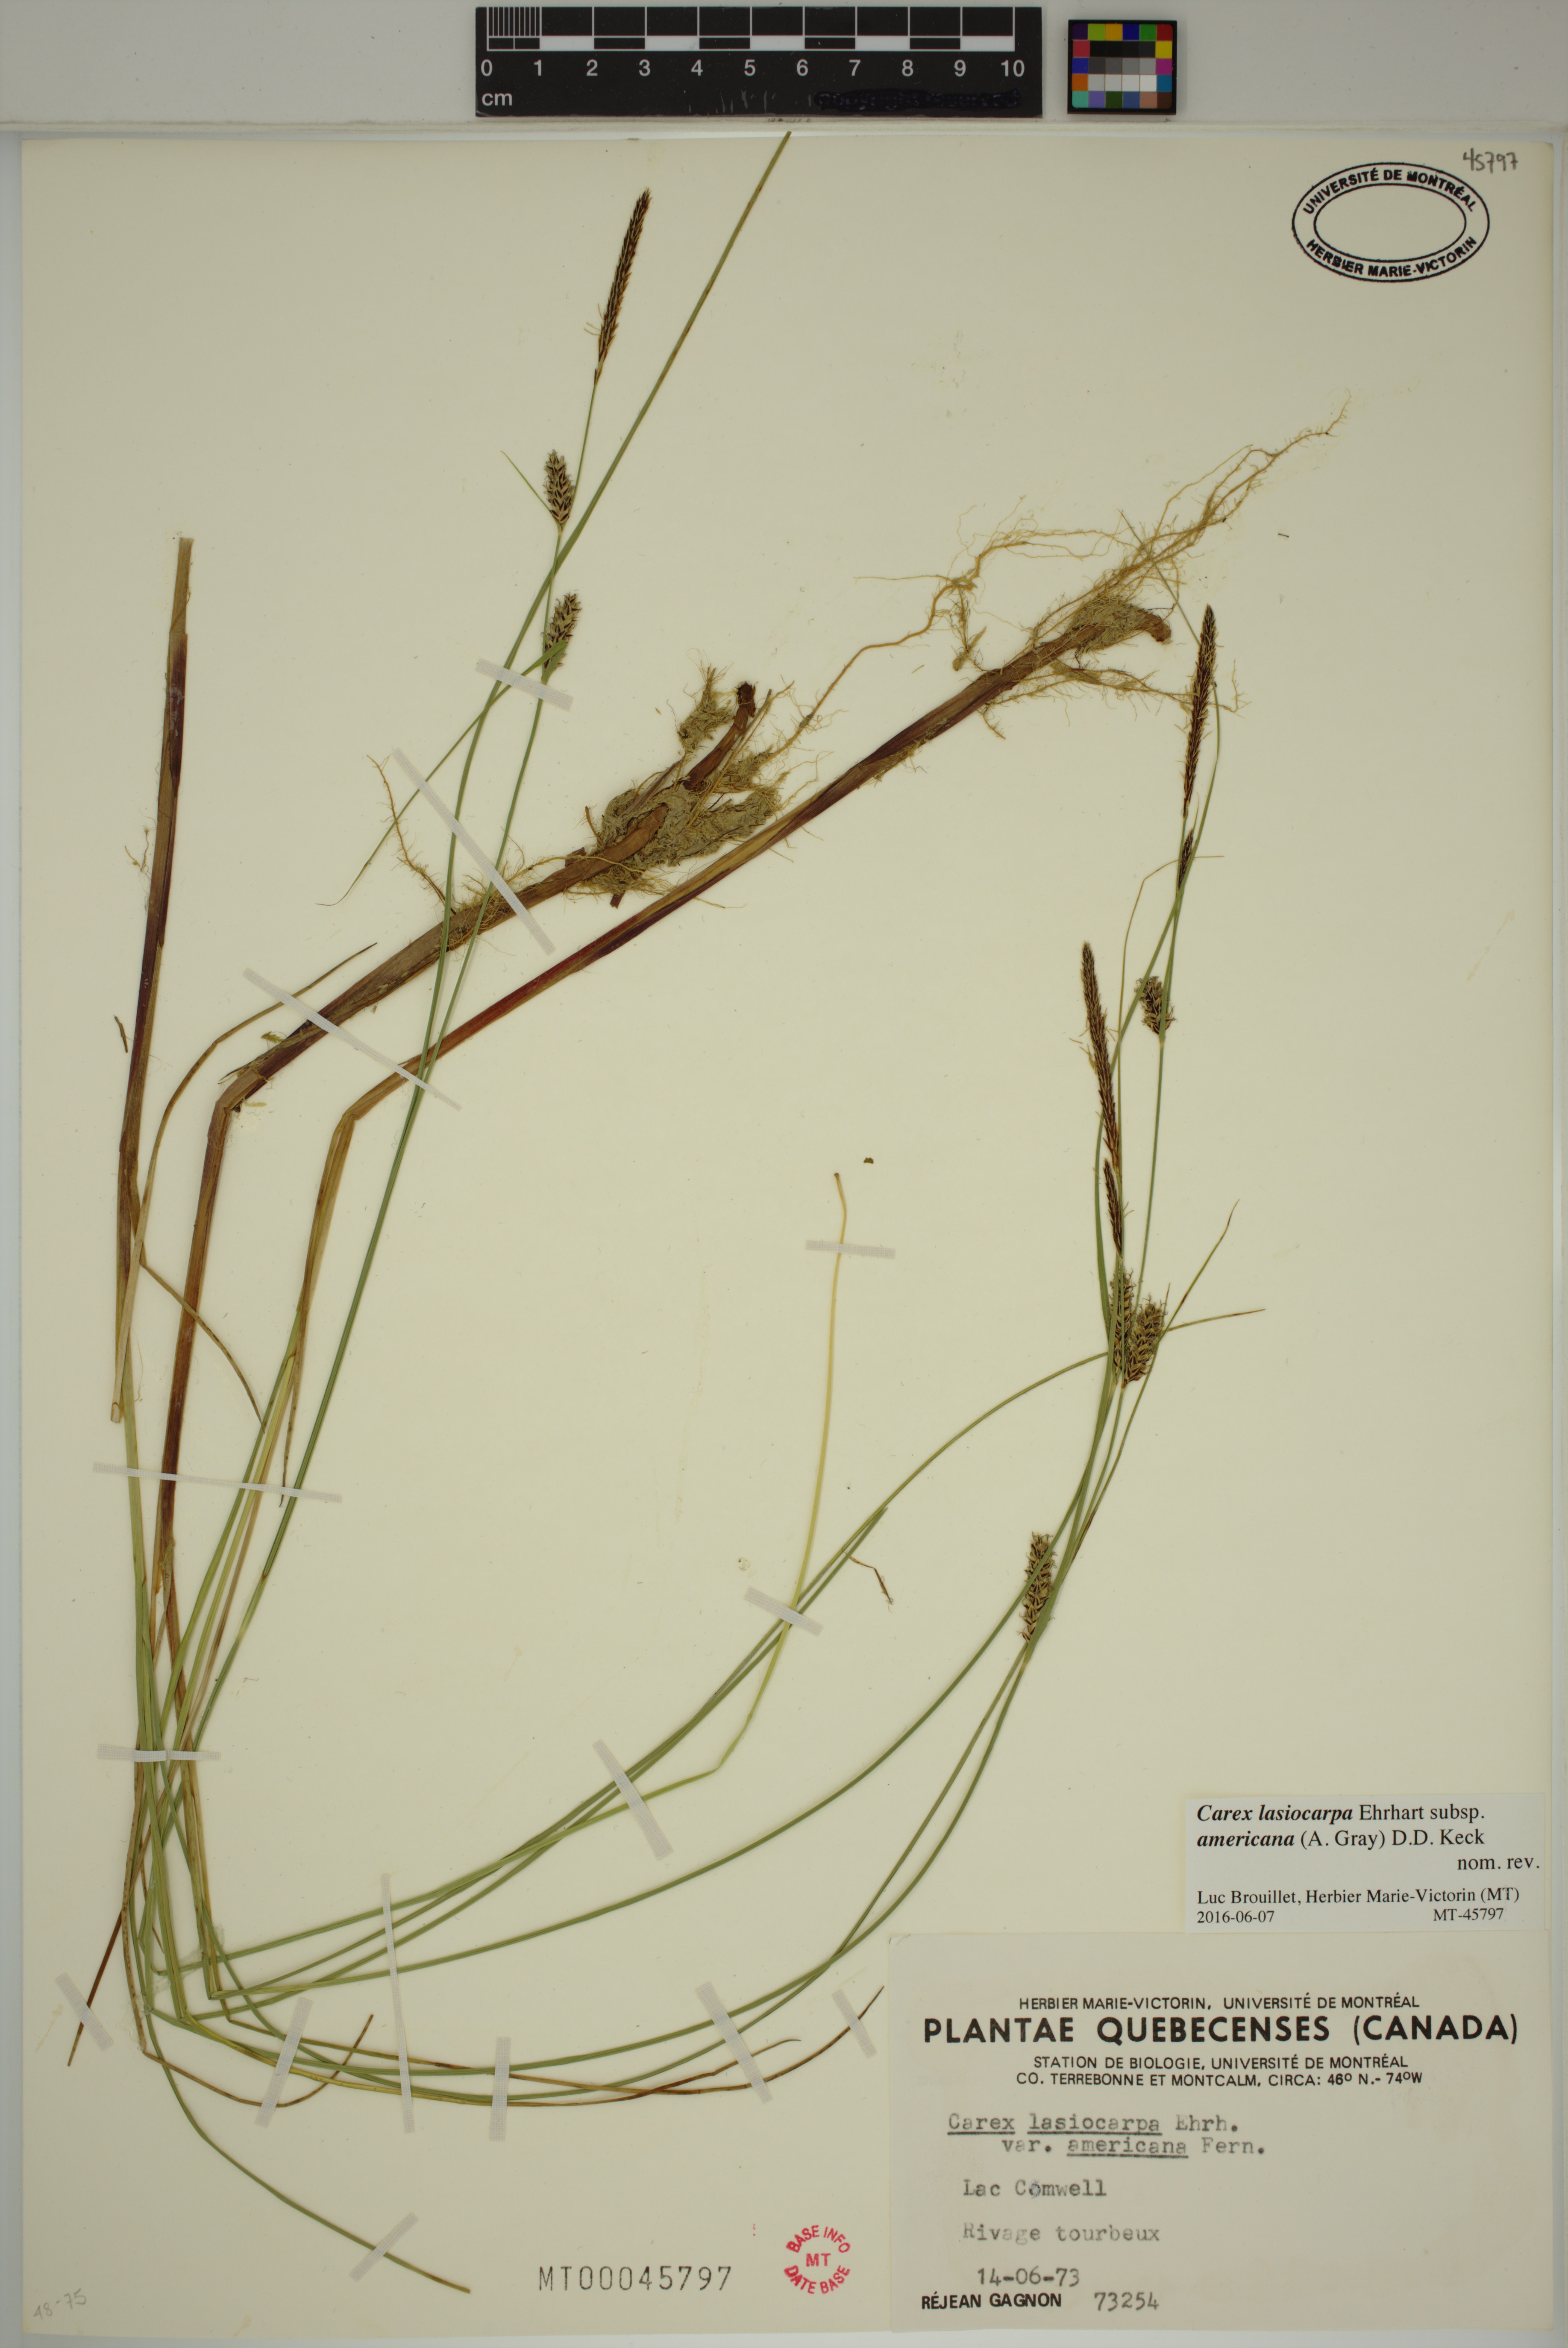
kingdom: Plantae
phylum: Tracheophyta
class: Liliopsida
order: Poales
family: Cyperaceae
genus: Carex
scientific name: Carex lasiocarpa
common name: Slender sedge
